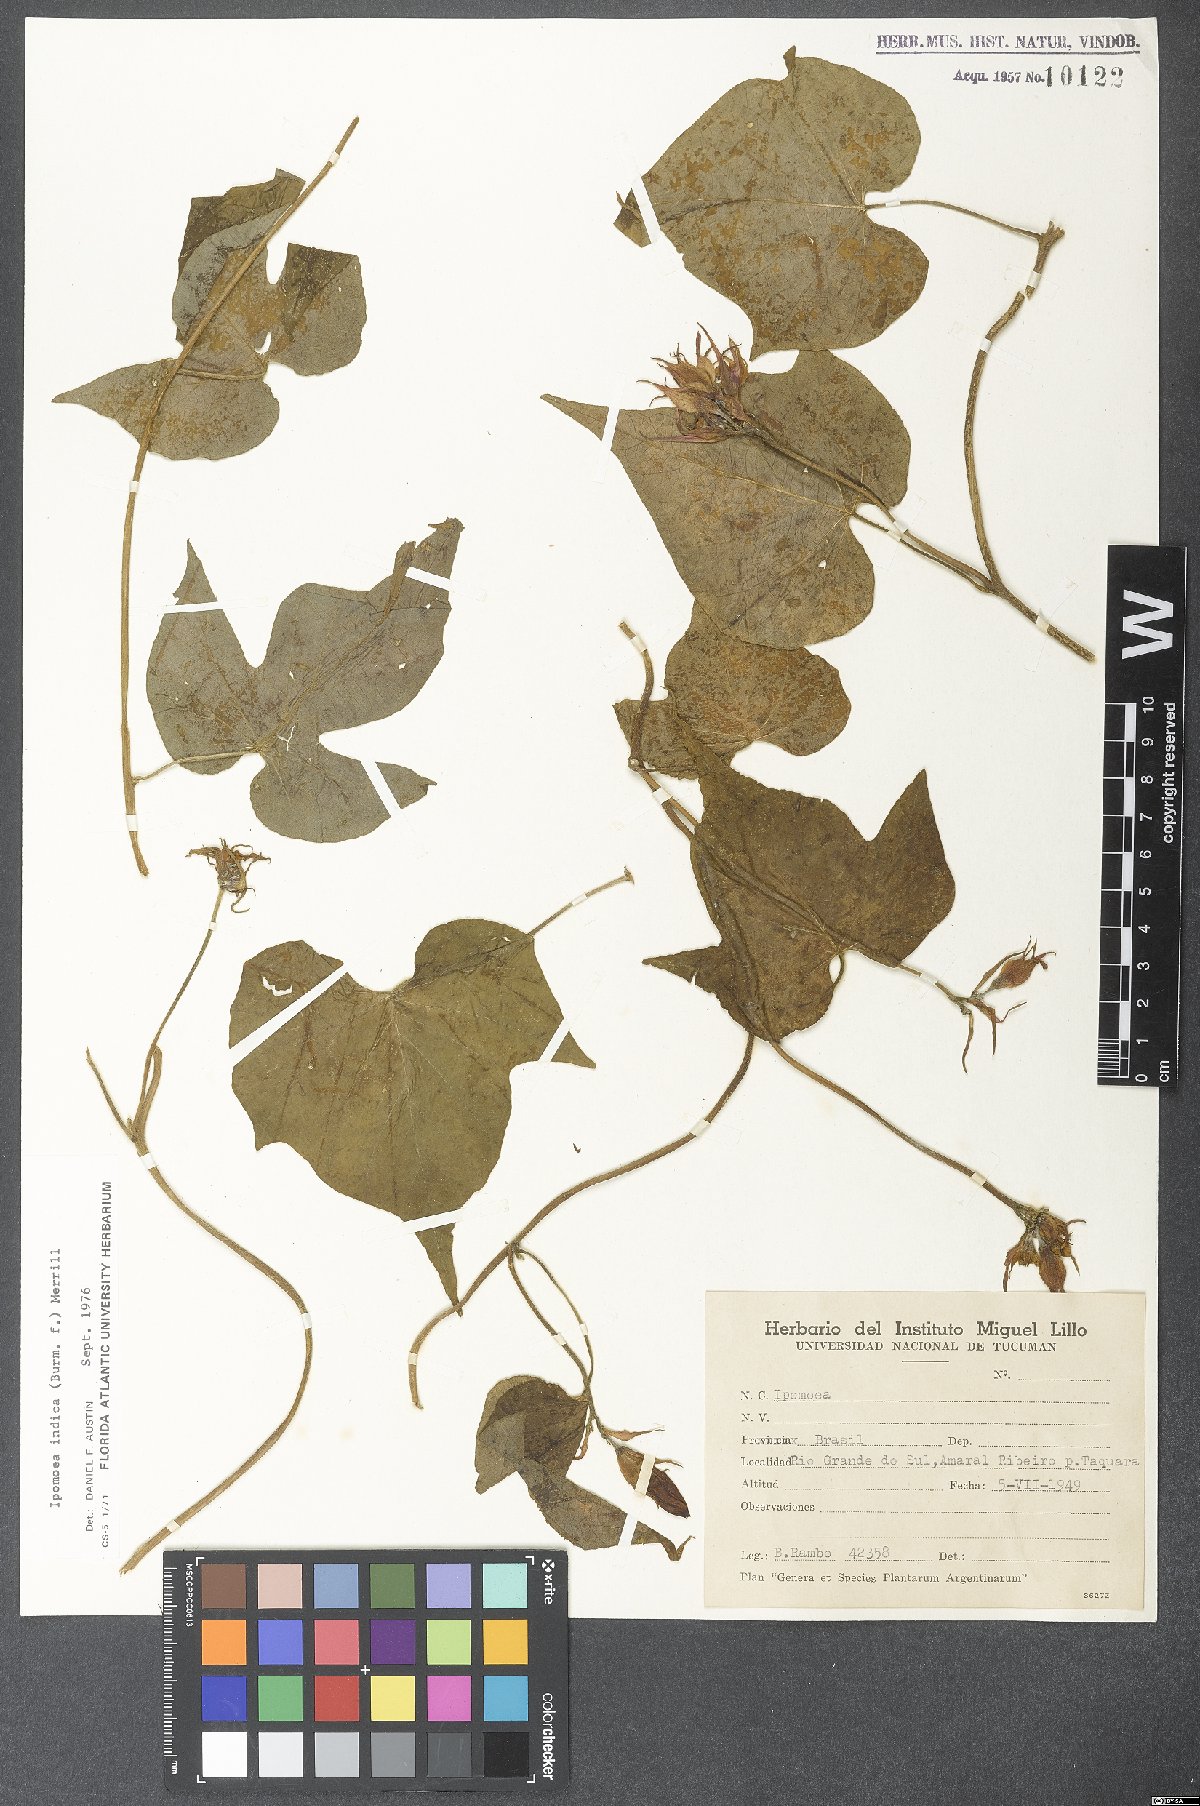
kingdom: Plantae
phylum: Tracheophyta
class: Magnoliopsida
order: Solanales
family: Convolvulaceae
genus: Ipomoea
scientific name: Ipomoea indica
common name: Blue dawnflower
